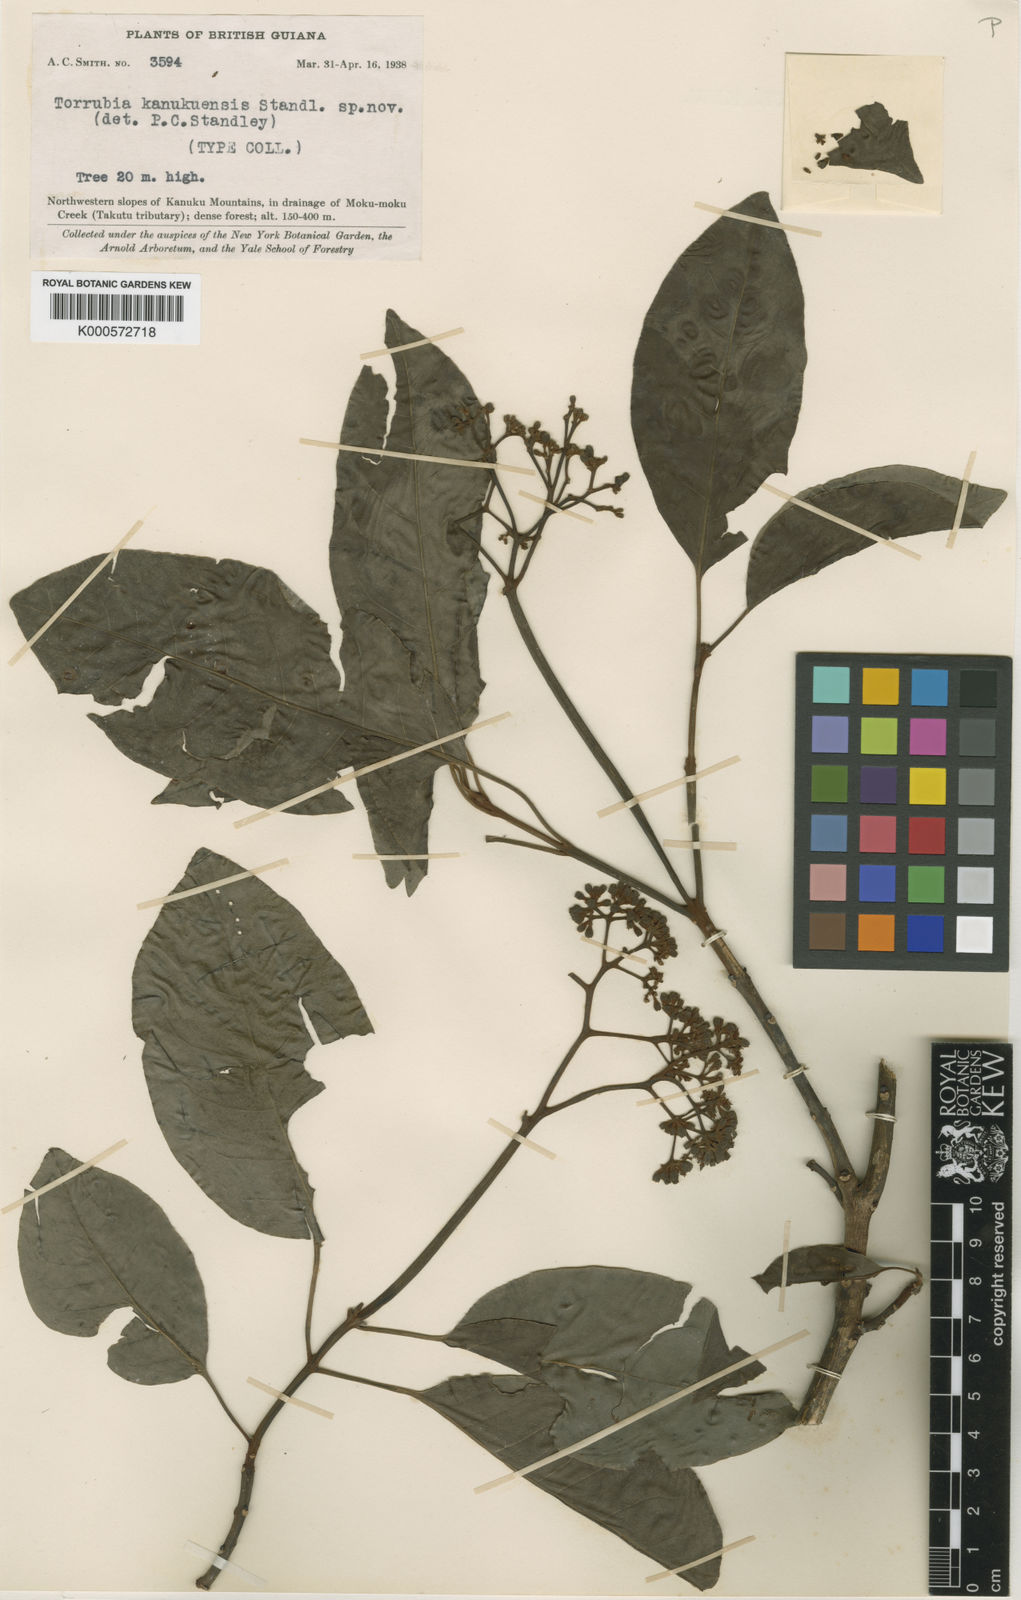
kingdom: Plantae
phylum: Tracheophyta
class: Magnoliopsida
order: Caryophyllales
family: Nyctaginaceae
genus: Guapira
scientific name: Guapira kanukuensis
